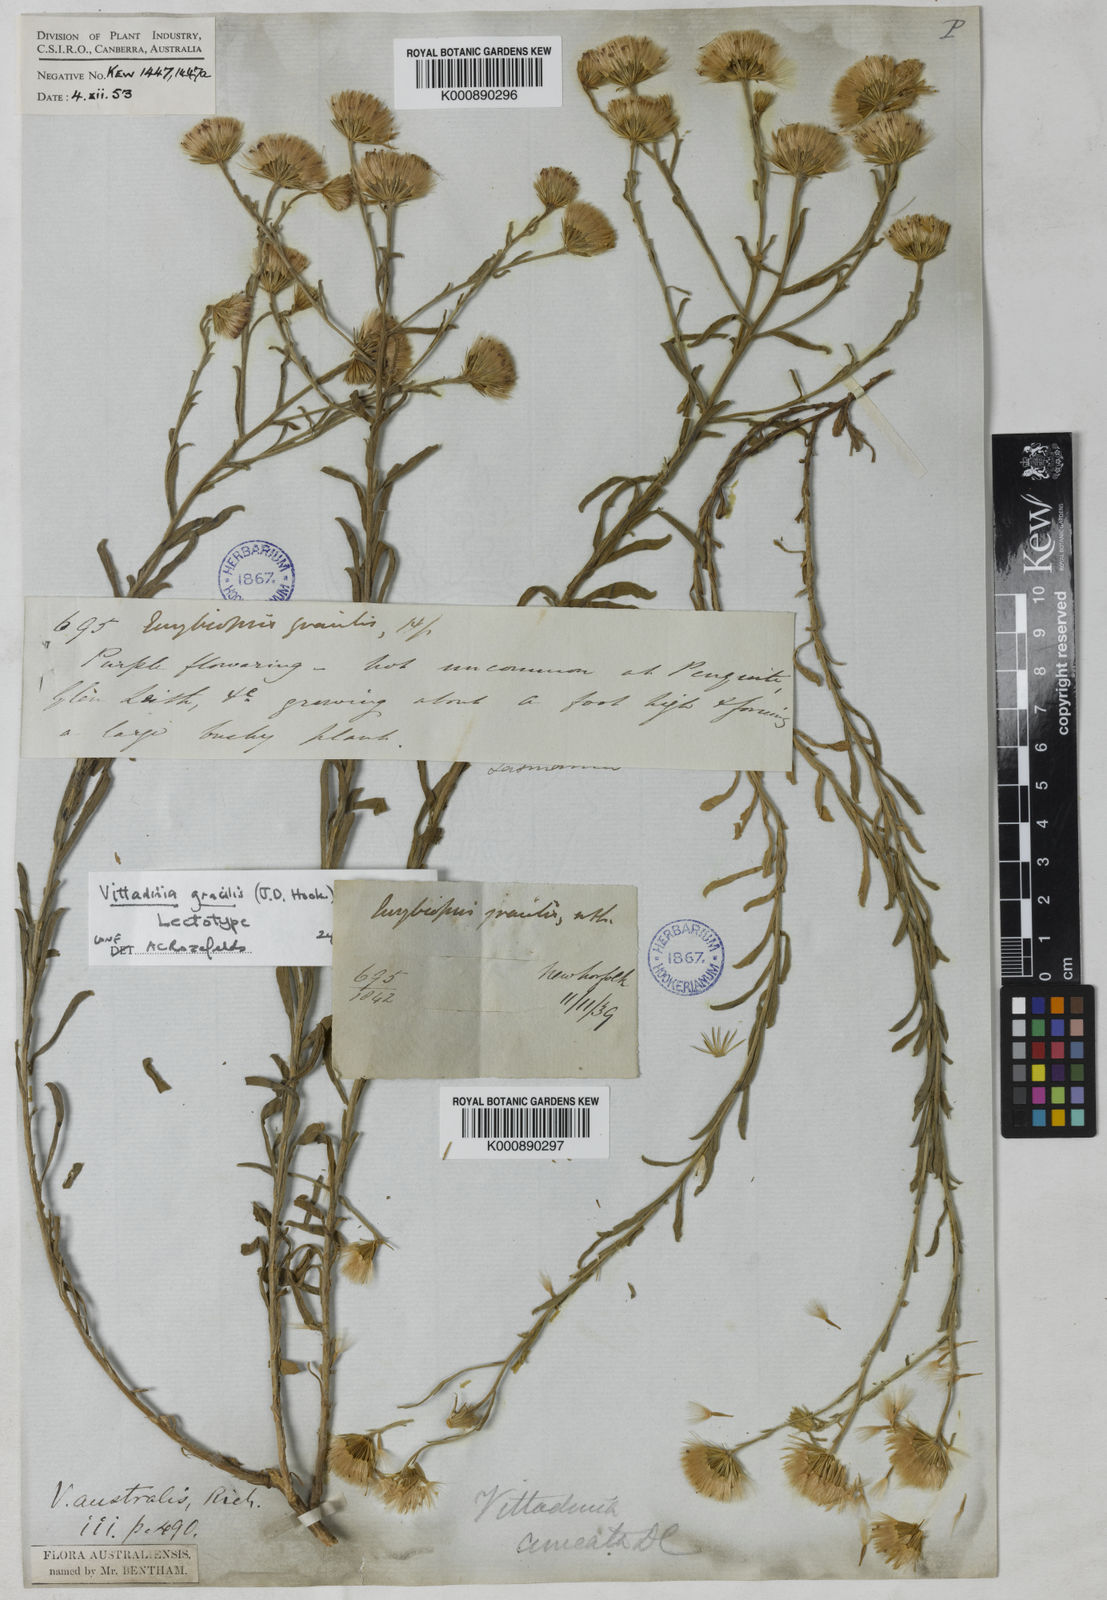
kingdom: Plantae
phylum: Tracheophyta
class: Magnoliopsida
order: Asterales
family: Asteraceae
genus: Vittadinia
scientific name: Vittadinia gracilis
